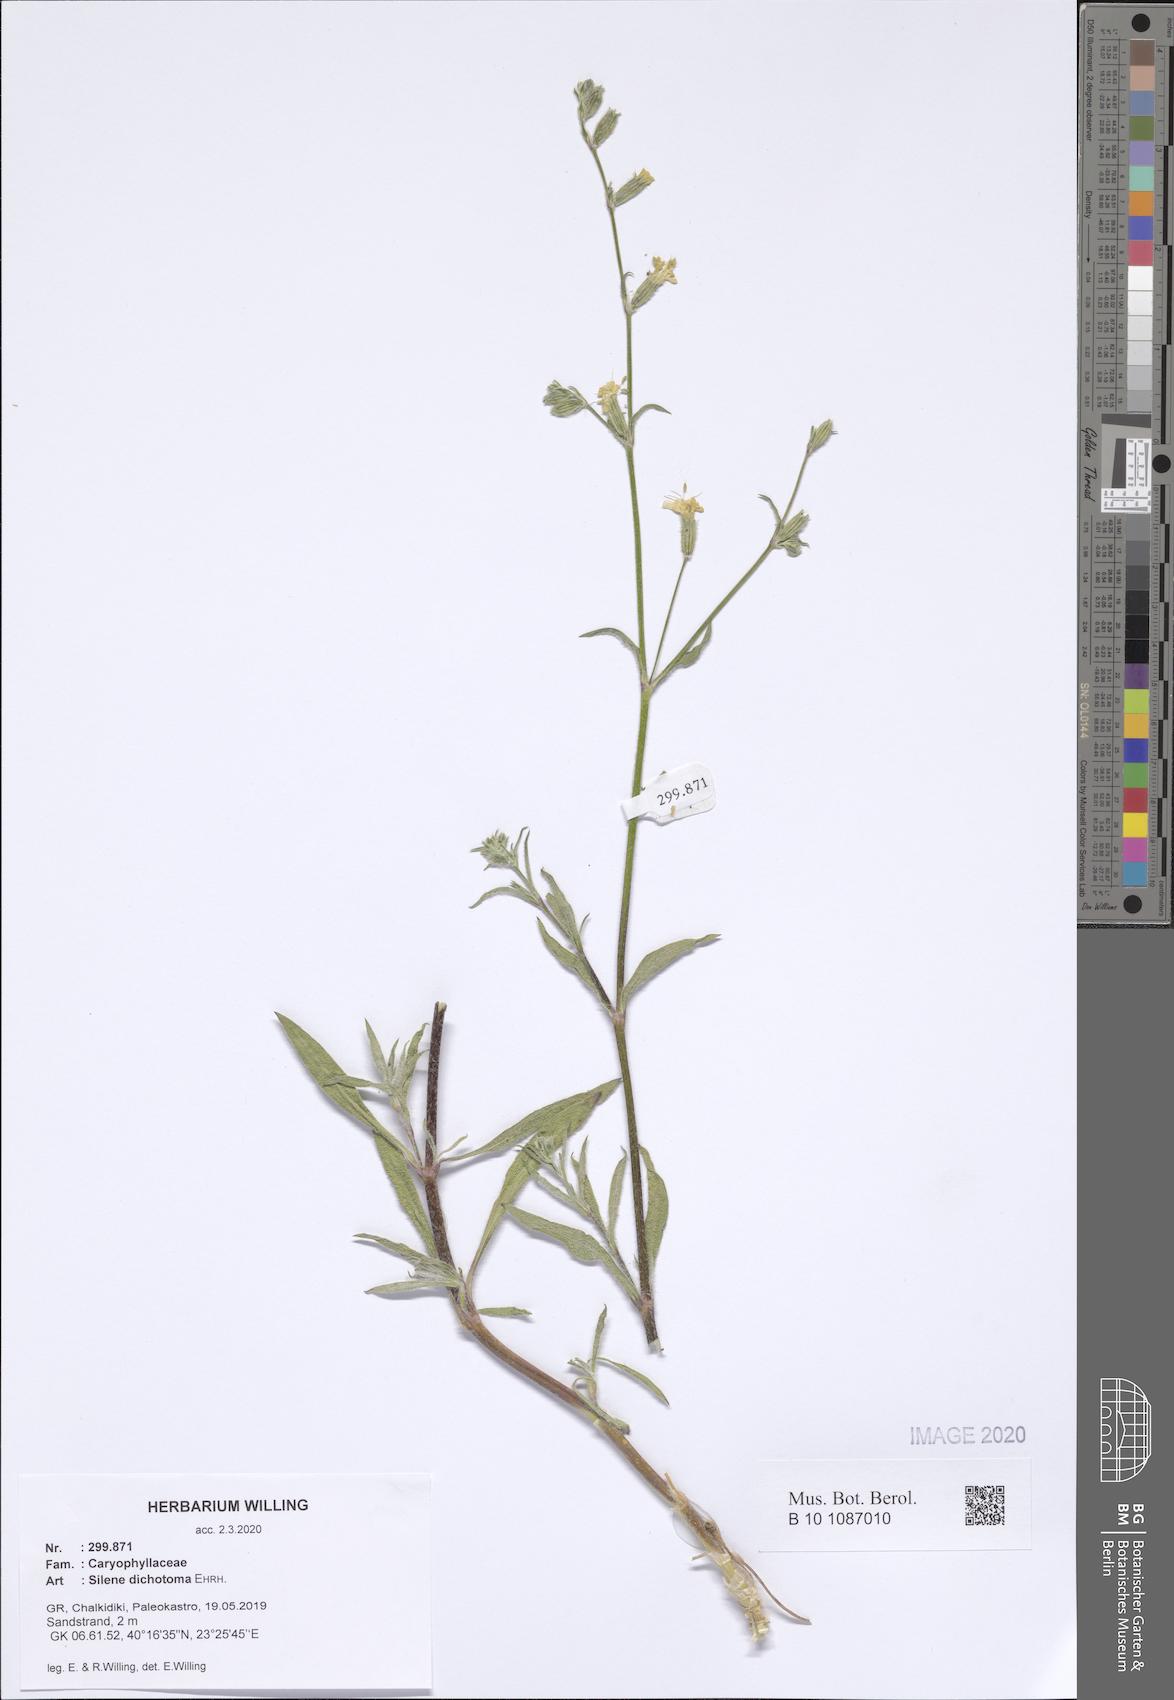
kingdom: Plantae
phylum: Tracheophyta
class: Magnoliopsida
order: Caryophyllales
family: Caryophyllaceae
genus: Silene
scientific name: Silene dichotoma
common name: Forked catchfly
